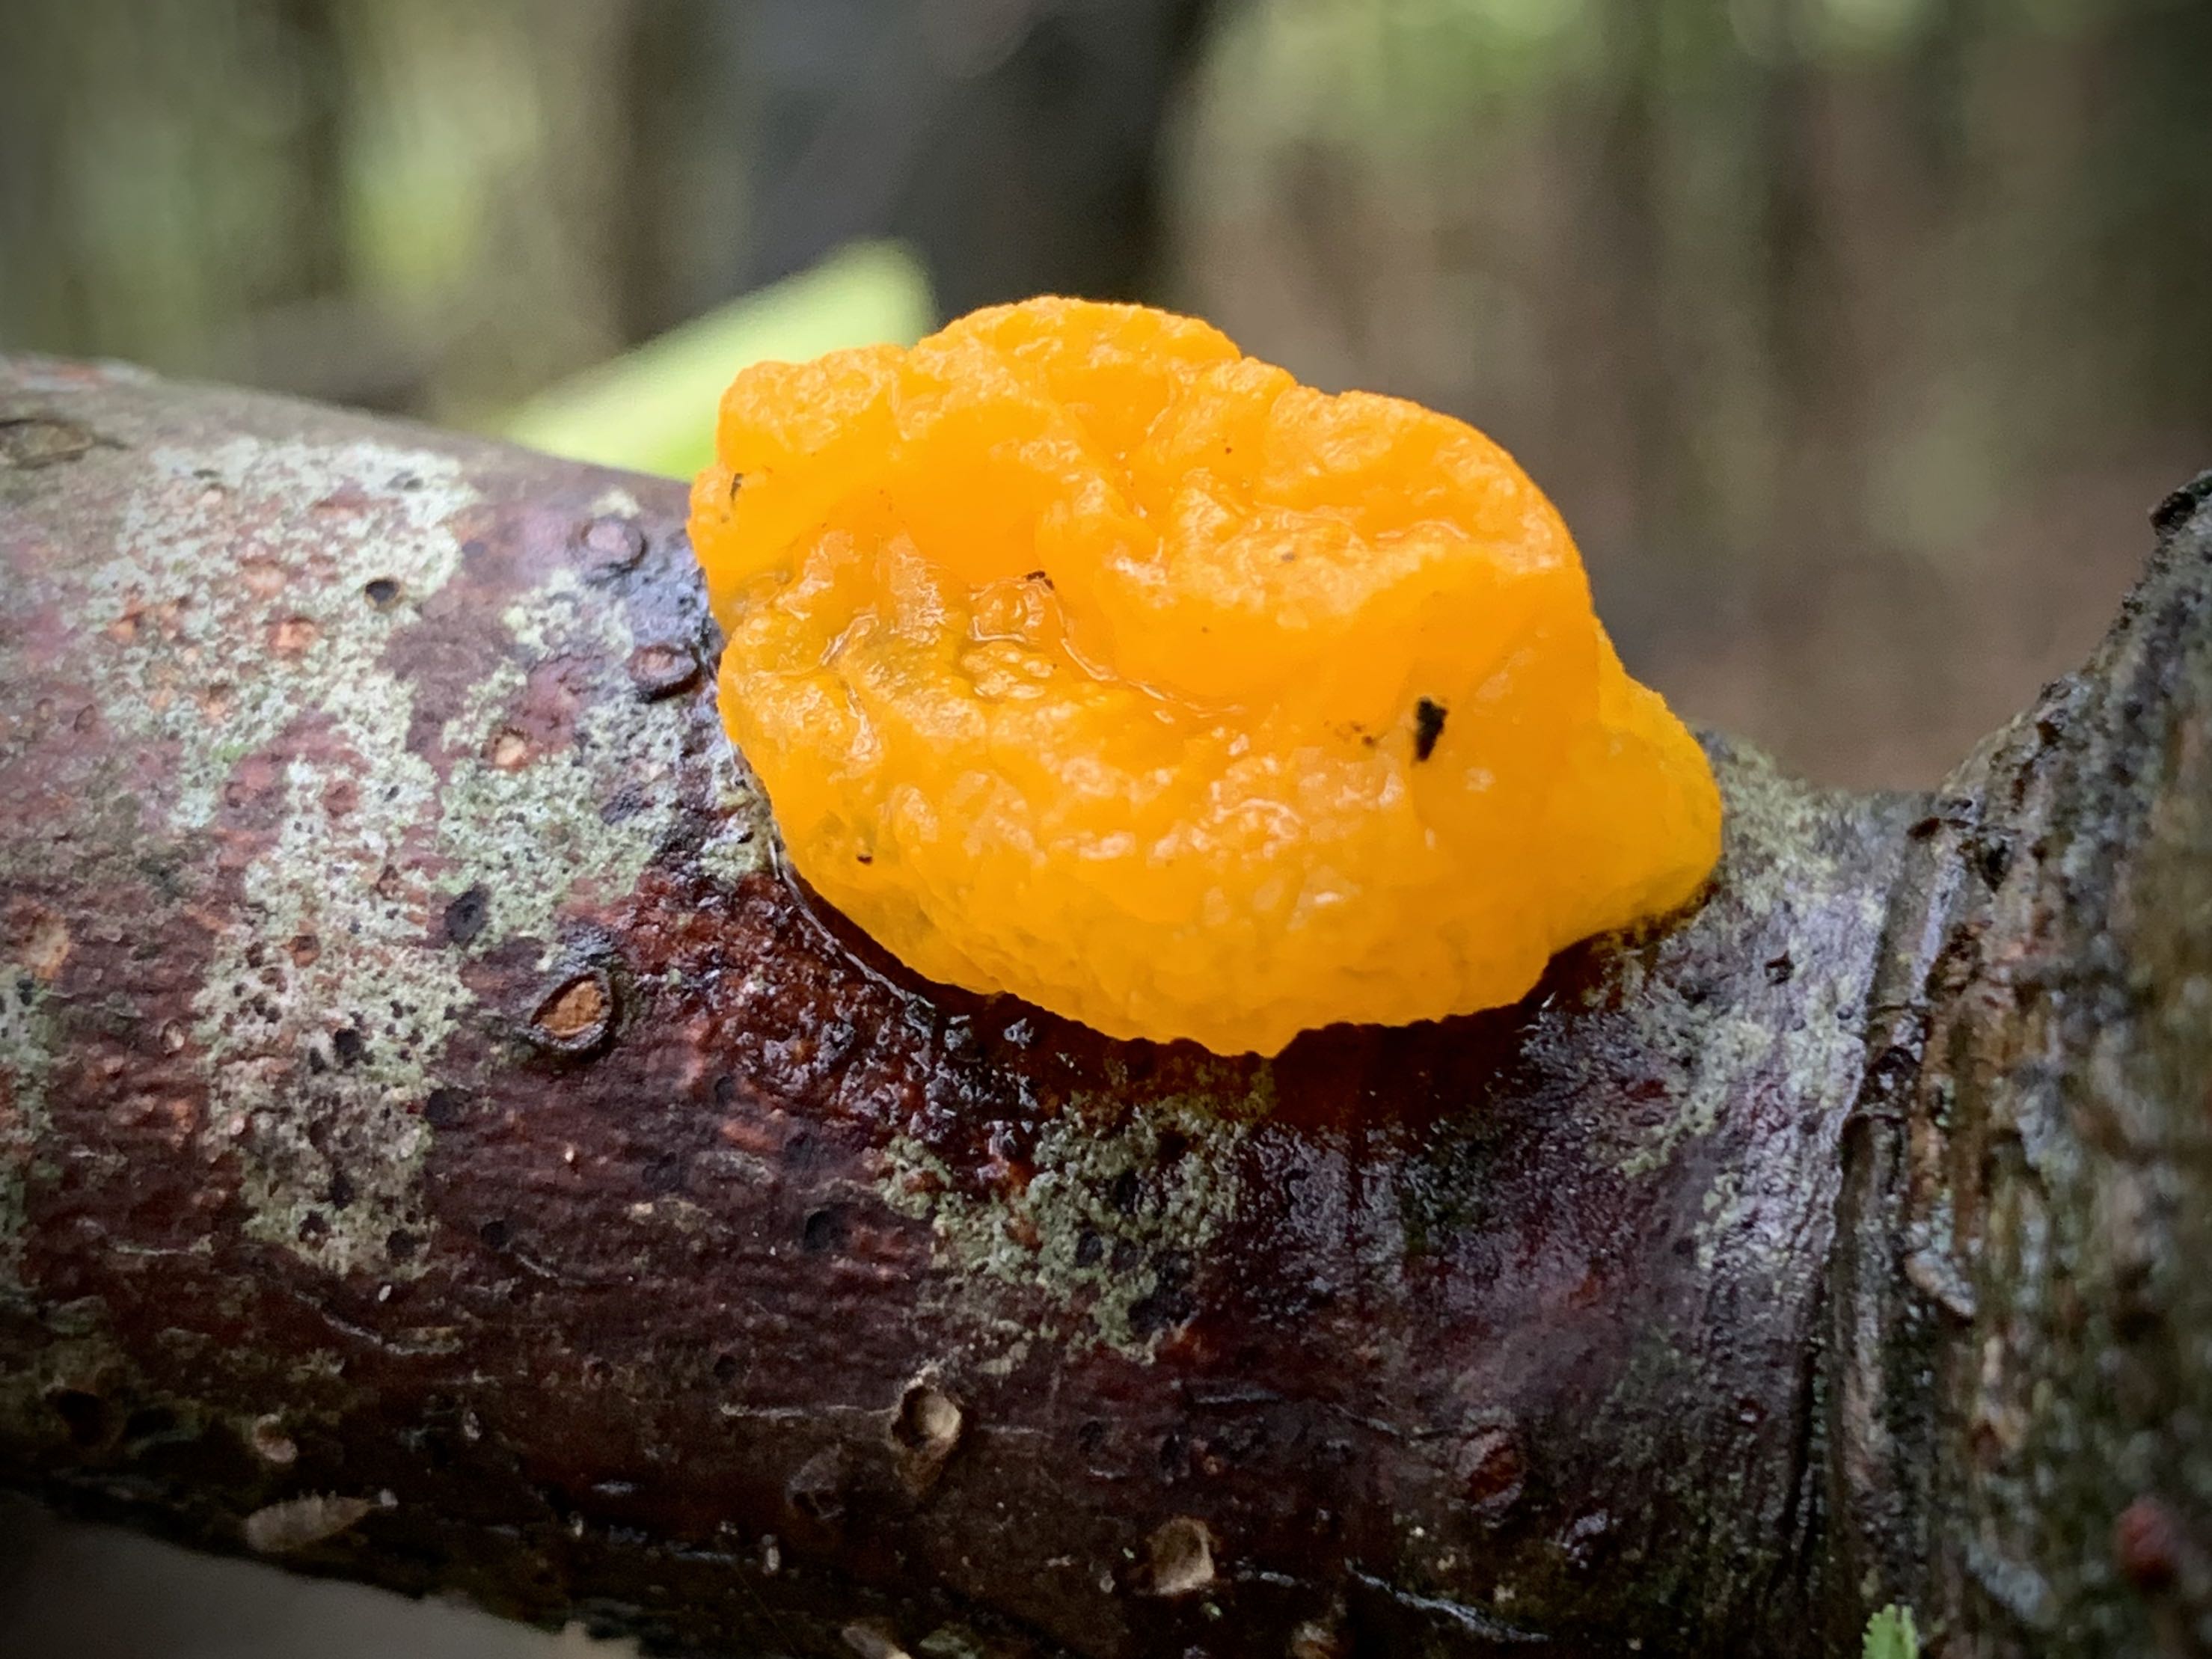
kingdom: Fungi
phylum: Basidiomycota
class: Tremellomycetes
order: Tremellales
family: Tremellaceae
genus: Tremella
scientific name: Tremella mesenterica
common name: gul bævresvamp
